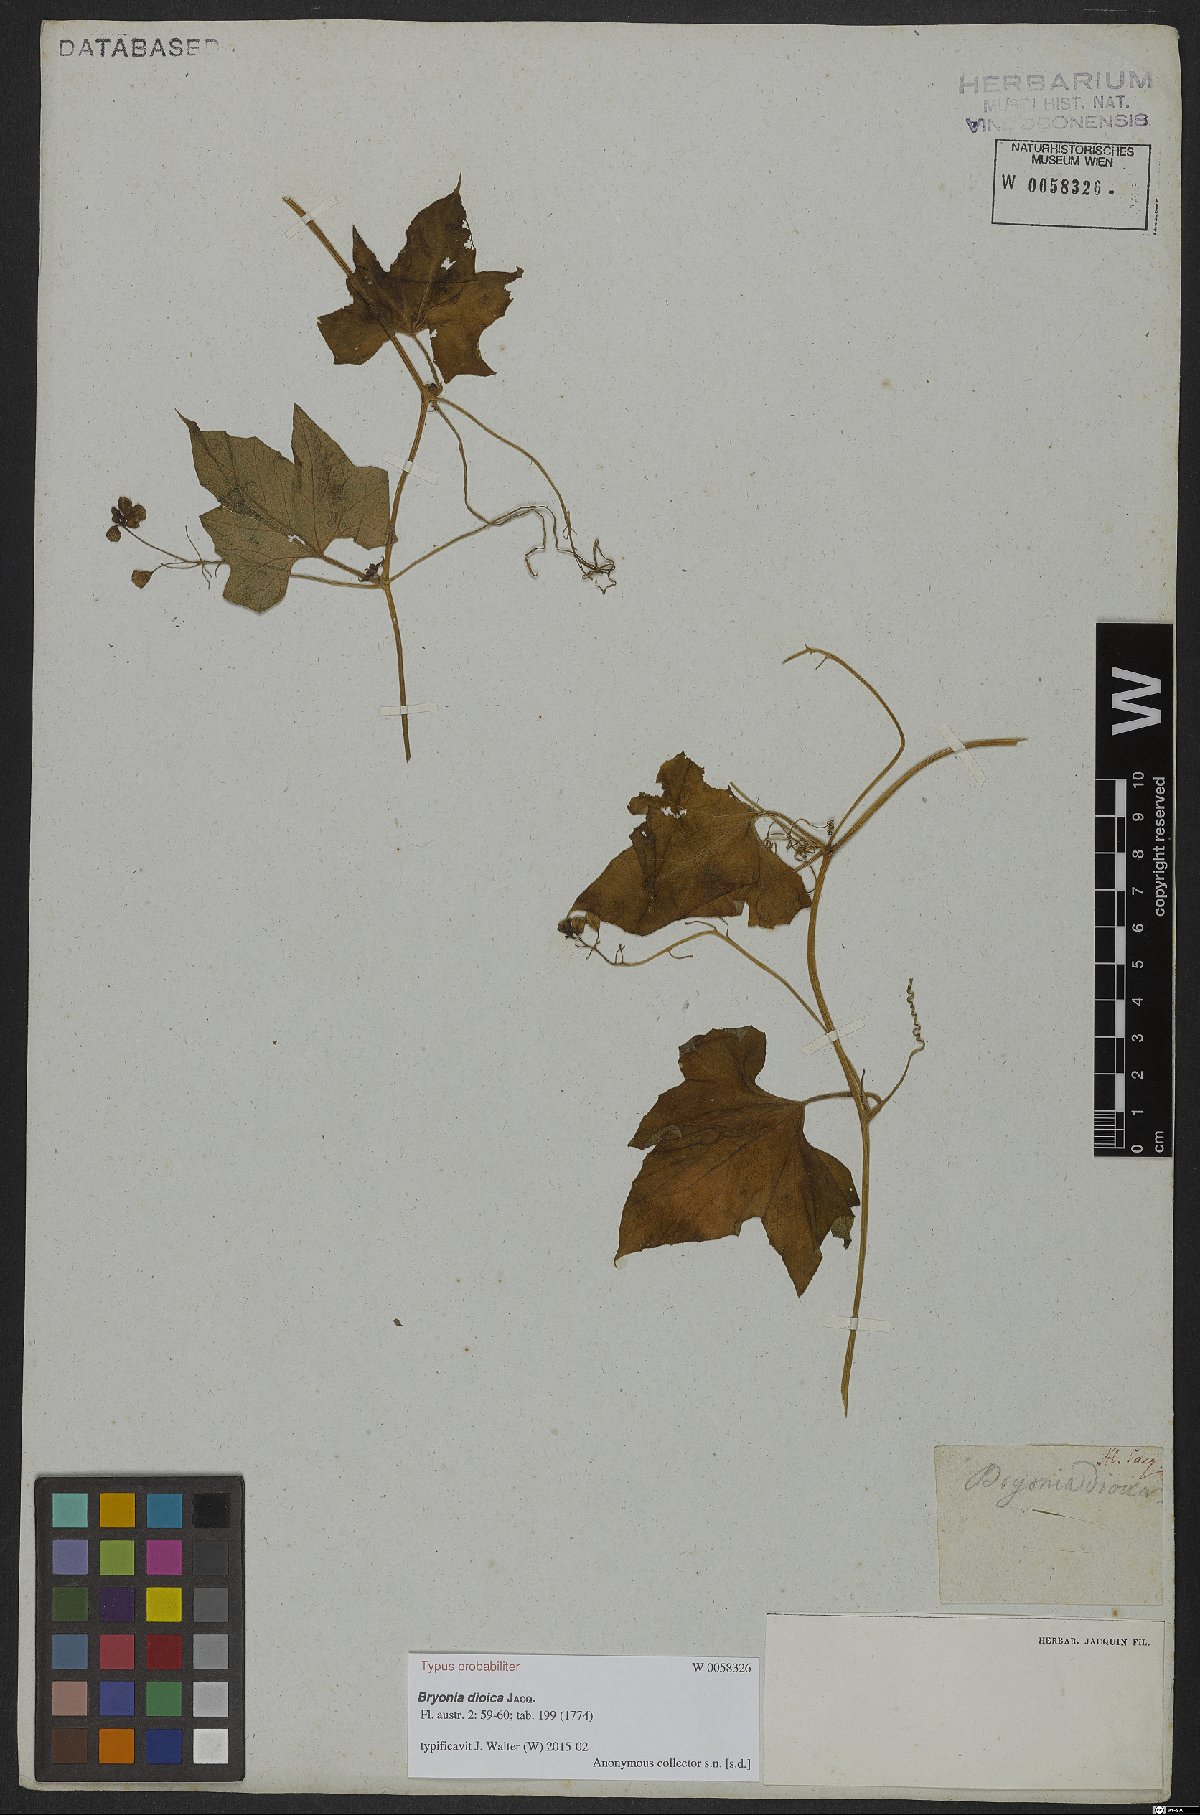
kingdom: Plantae
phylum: Tracheophyta
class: Magnoliopsida
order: Cucurbitales
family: Cucurbitaceae
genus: Bryonia
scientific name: Bryonia dioica
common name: White bryony
